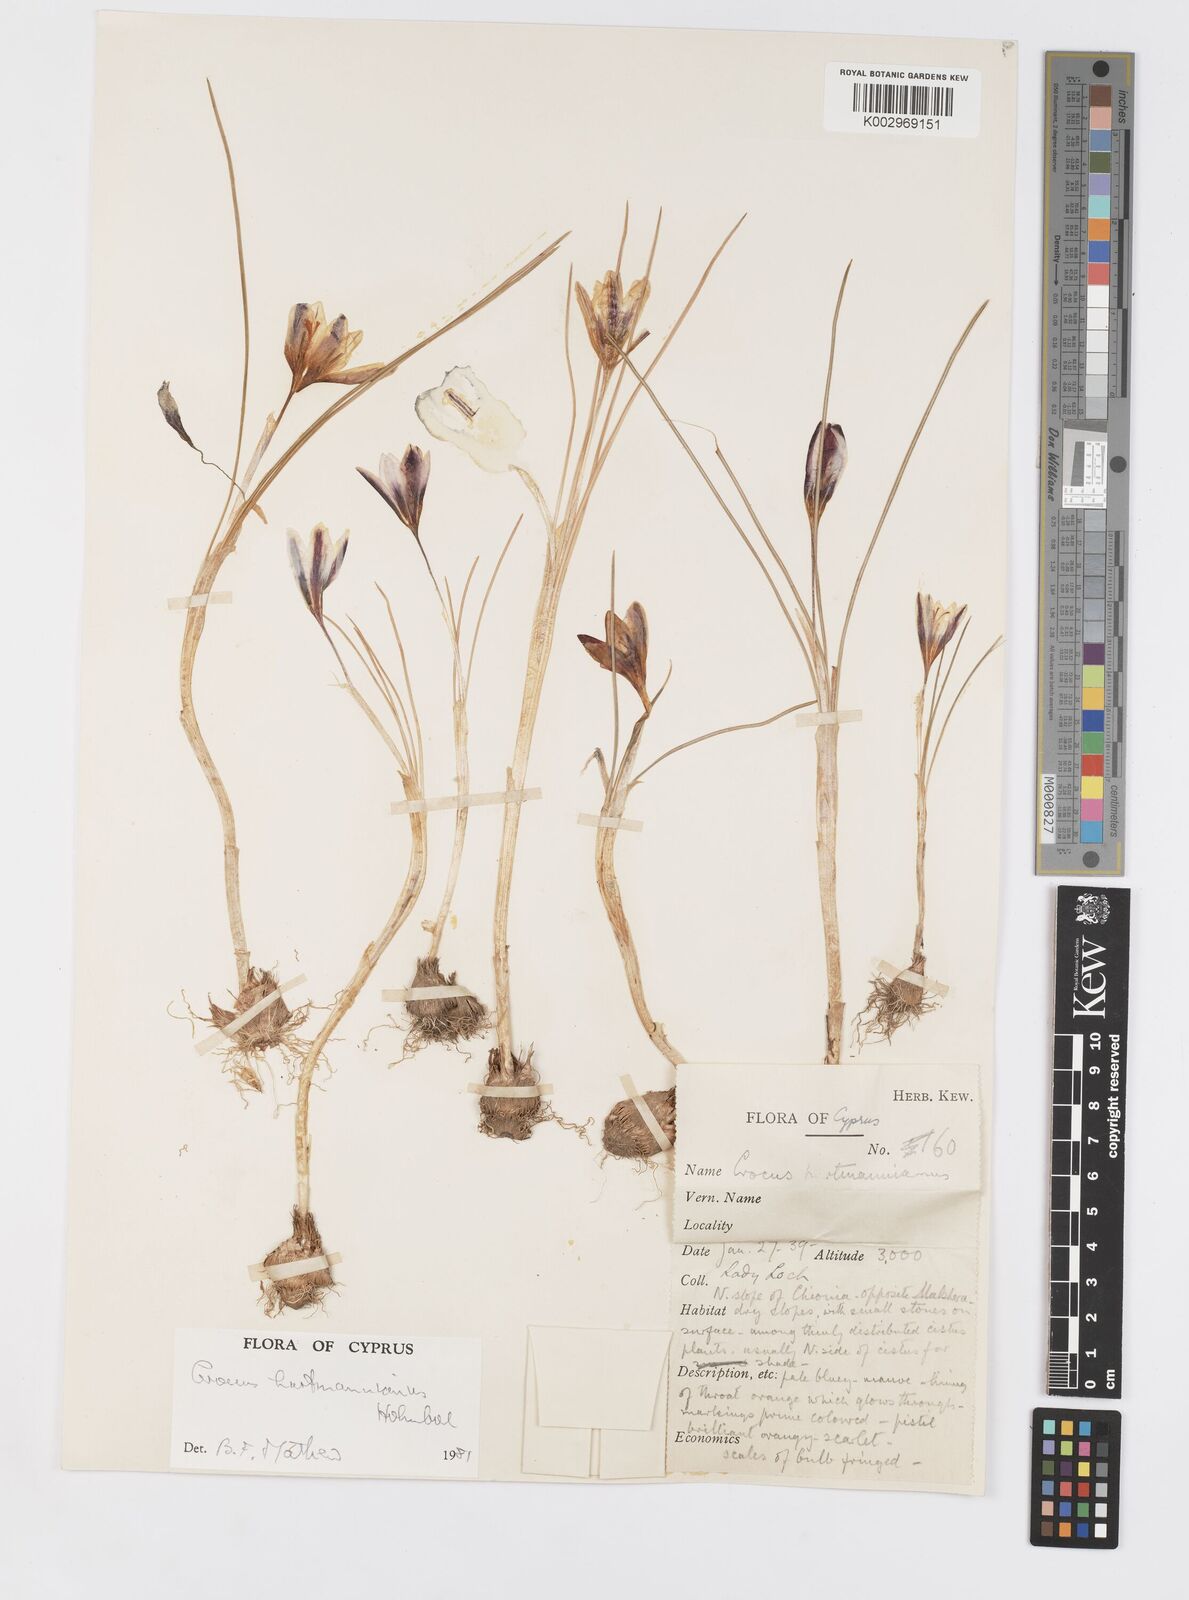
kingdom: Plantae
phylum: Tracheophyta
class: Liliopsida
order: Asparagales
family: Iridaceae
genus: Crocus
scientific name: Crocus hartmannianus
